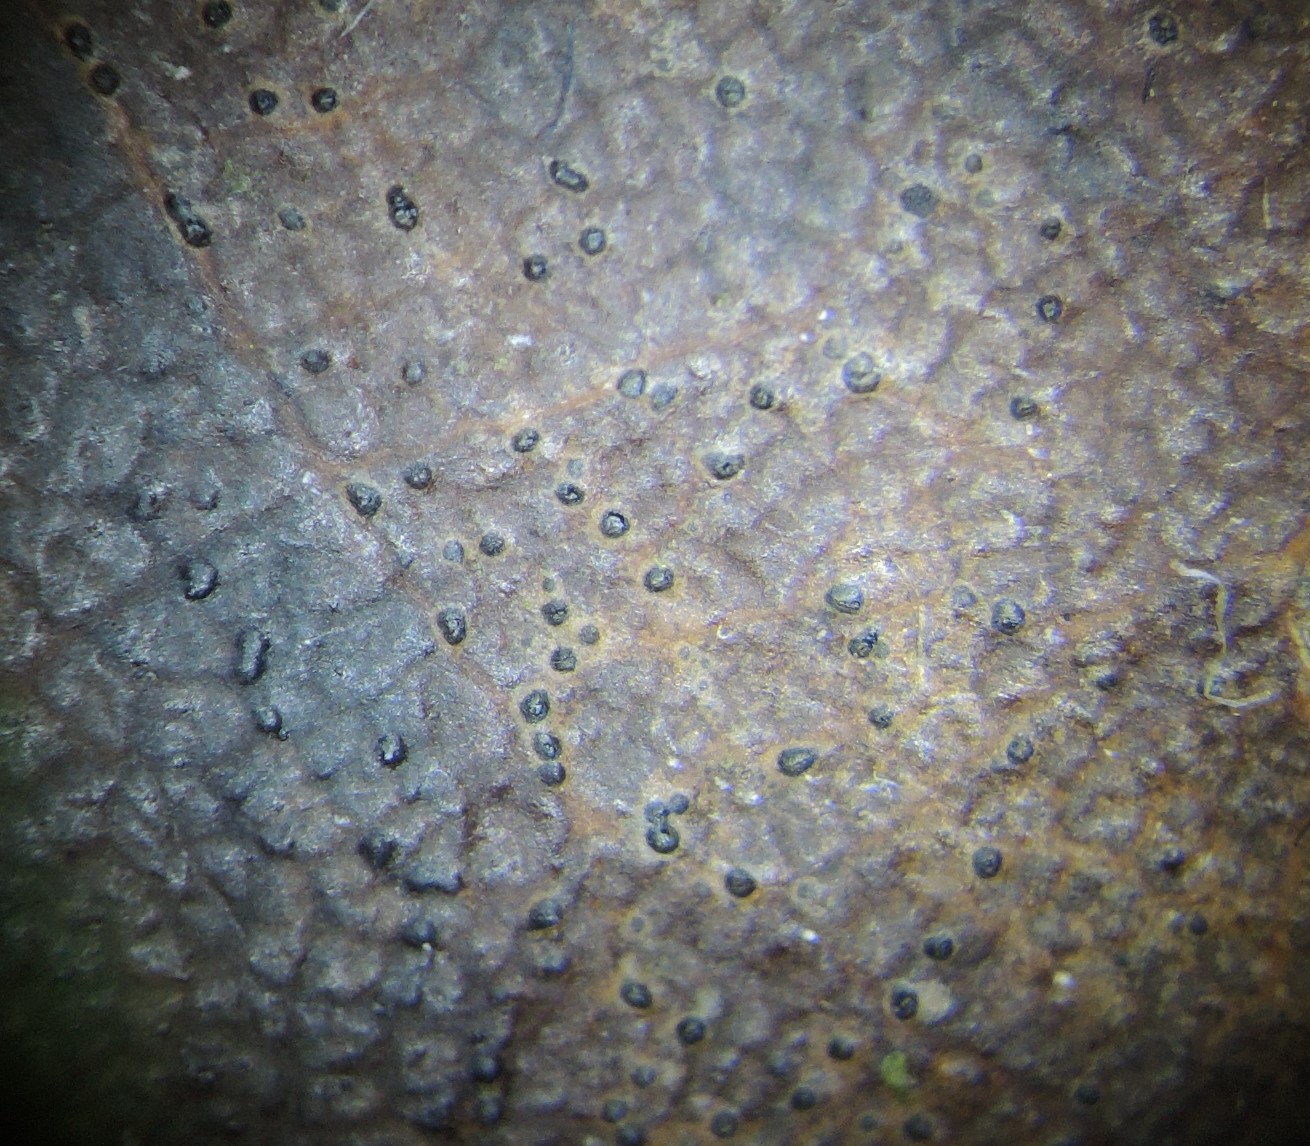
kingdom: Fungi
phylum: Ascomycota
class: Leotiomycetes
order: Helotiales
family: Dermateaceae
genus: Coleophoma
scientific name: Coleophoma empetri
